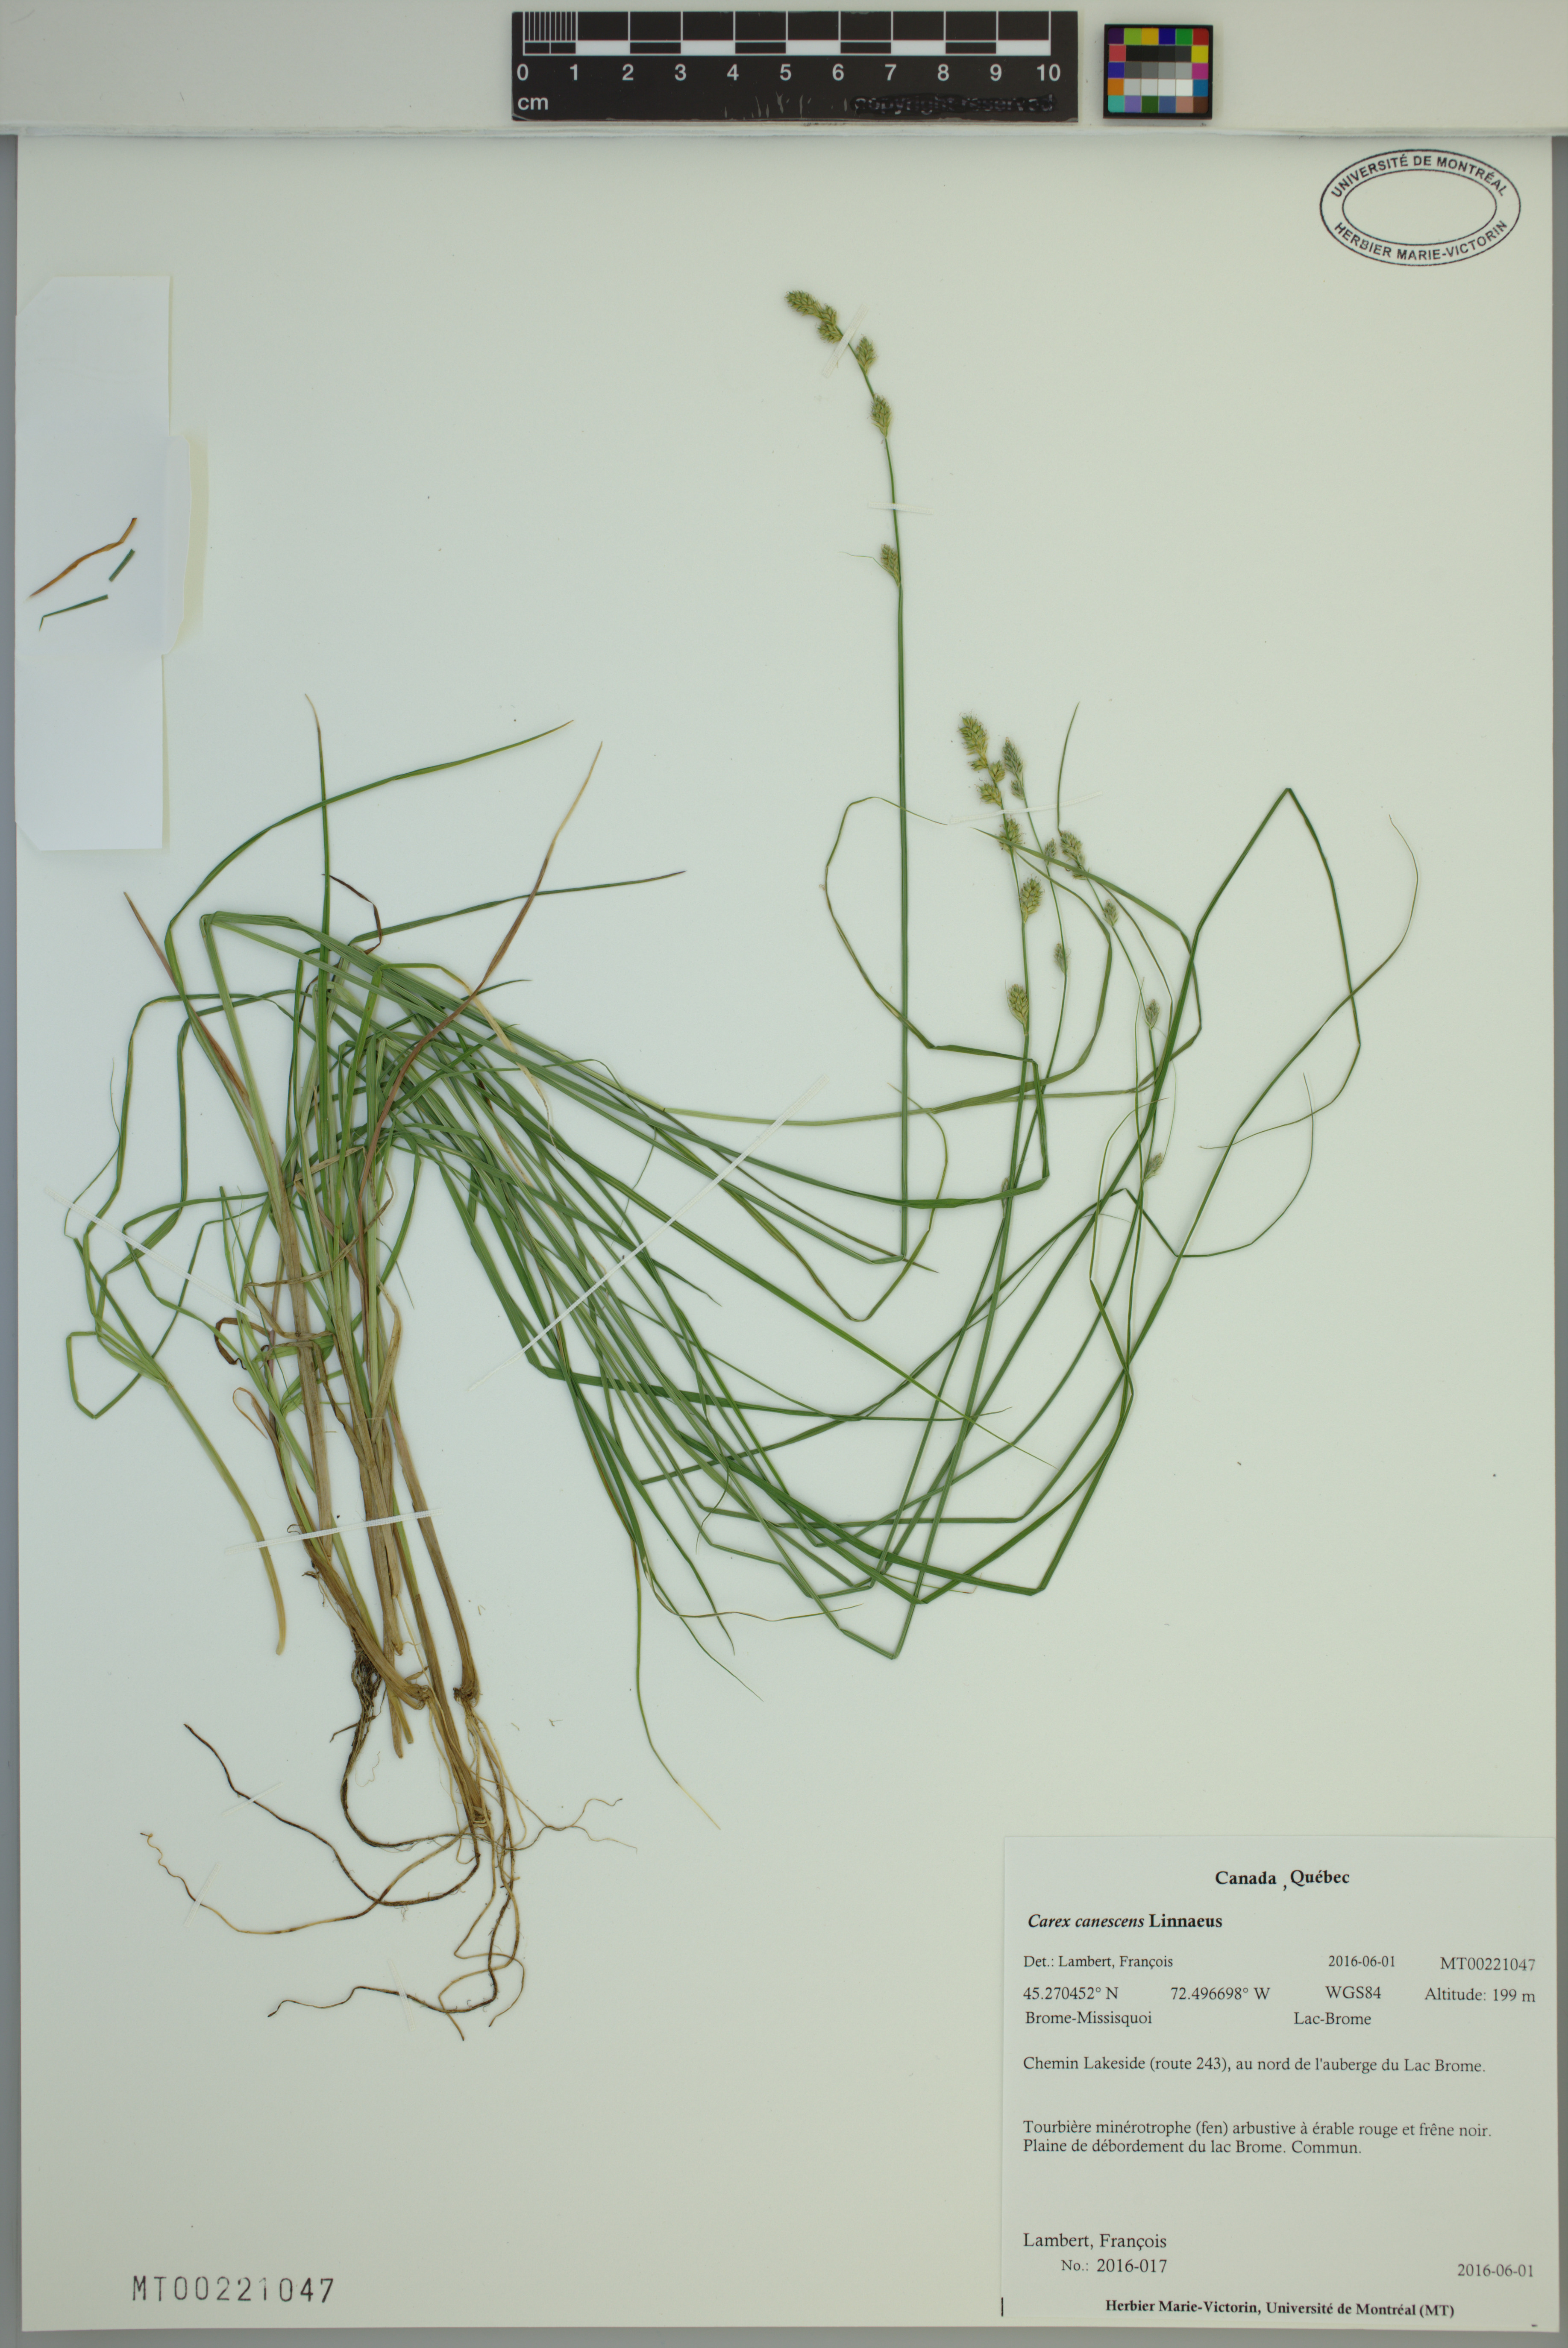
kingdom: Plantae
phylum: Tracheophyta
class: Liliopsida
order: Poales
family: Cyperaceae
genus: Carex
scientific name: Carex canescens
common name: White sedge
